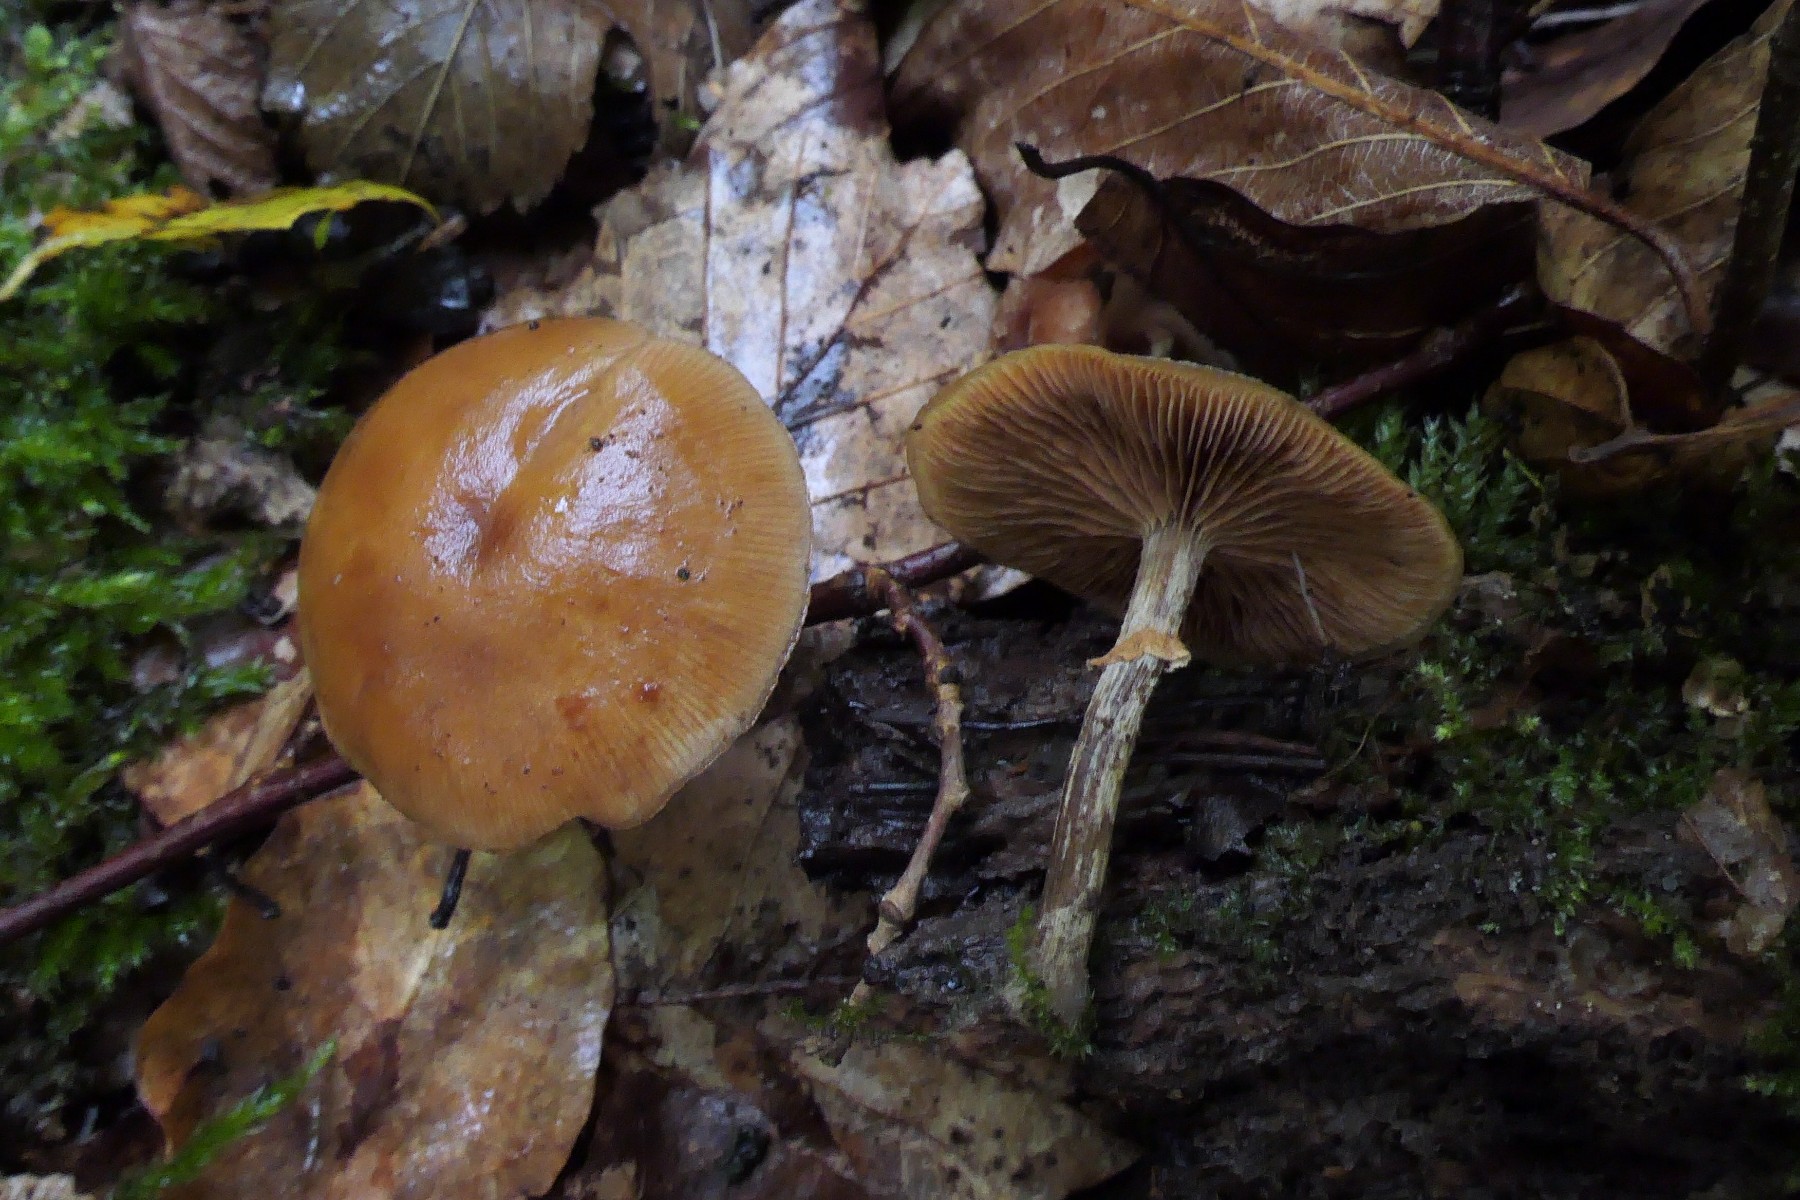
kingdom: Fungi
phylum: Basidiomycota
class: Agaricomycetes
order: Agaricales
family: Hymenogastraceae
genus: Galerina
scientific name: Galerina marginata
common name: randbæltet hjelmhat
